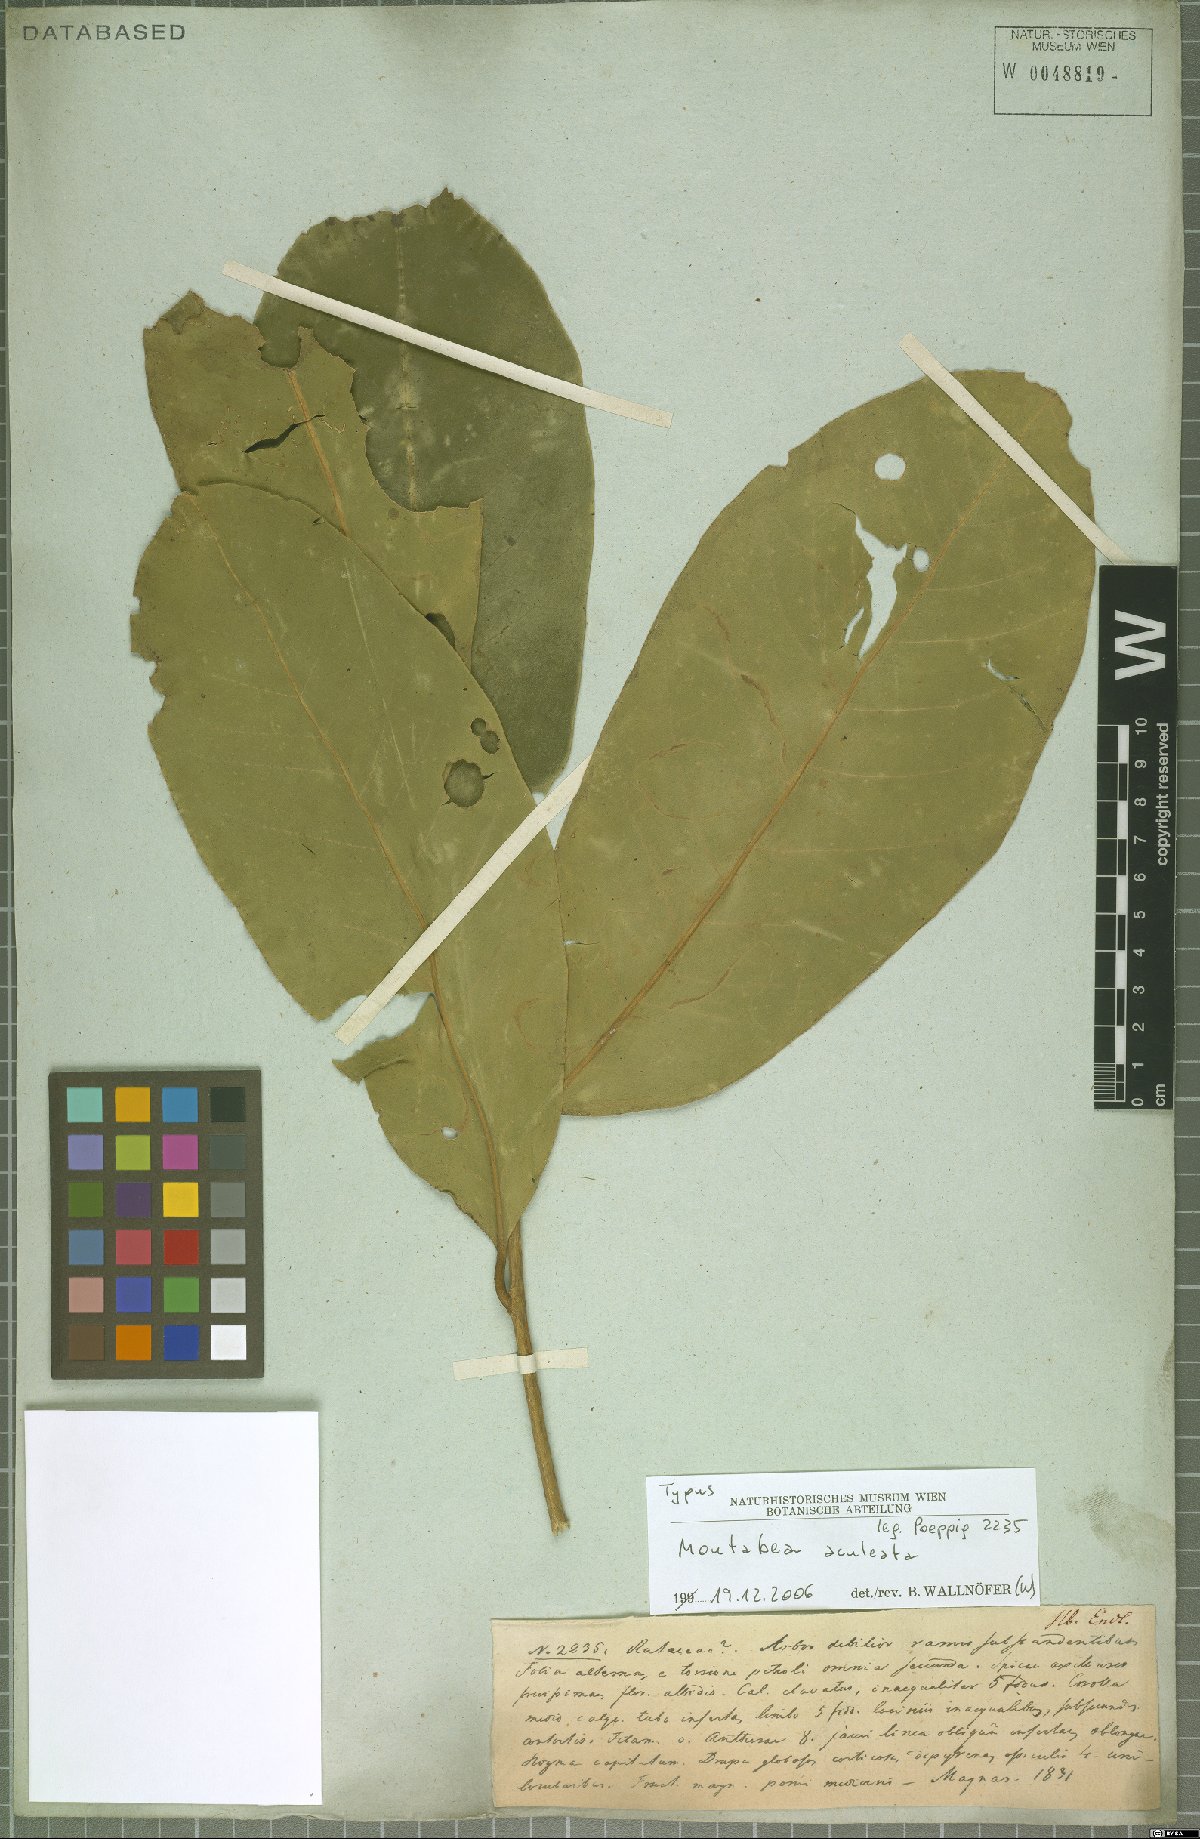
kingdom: Plantae
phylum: Tracheophyta
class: Magnoliopsida
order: Fabales
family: Polygalaceae
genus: Moutabea
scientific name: Moutabea aculeata
